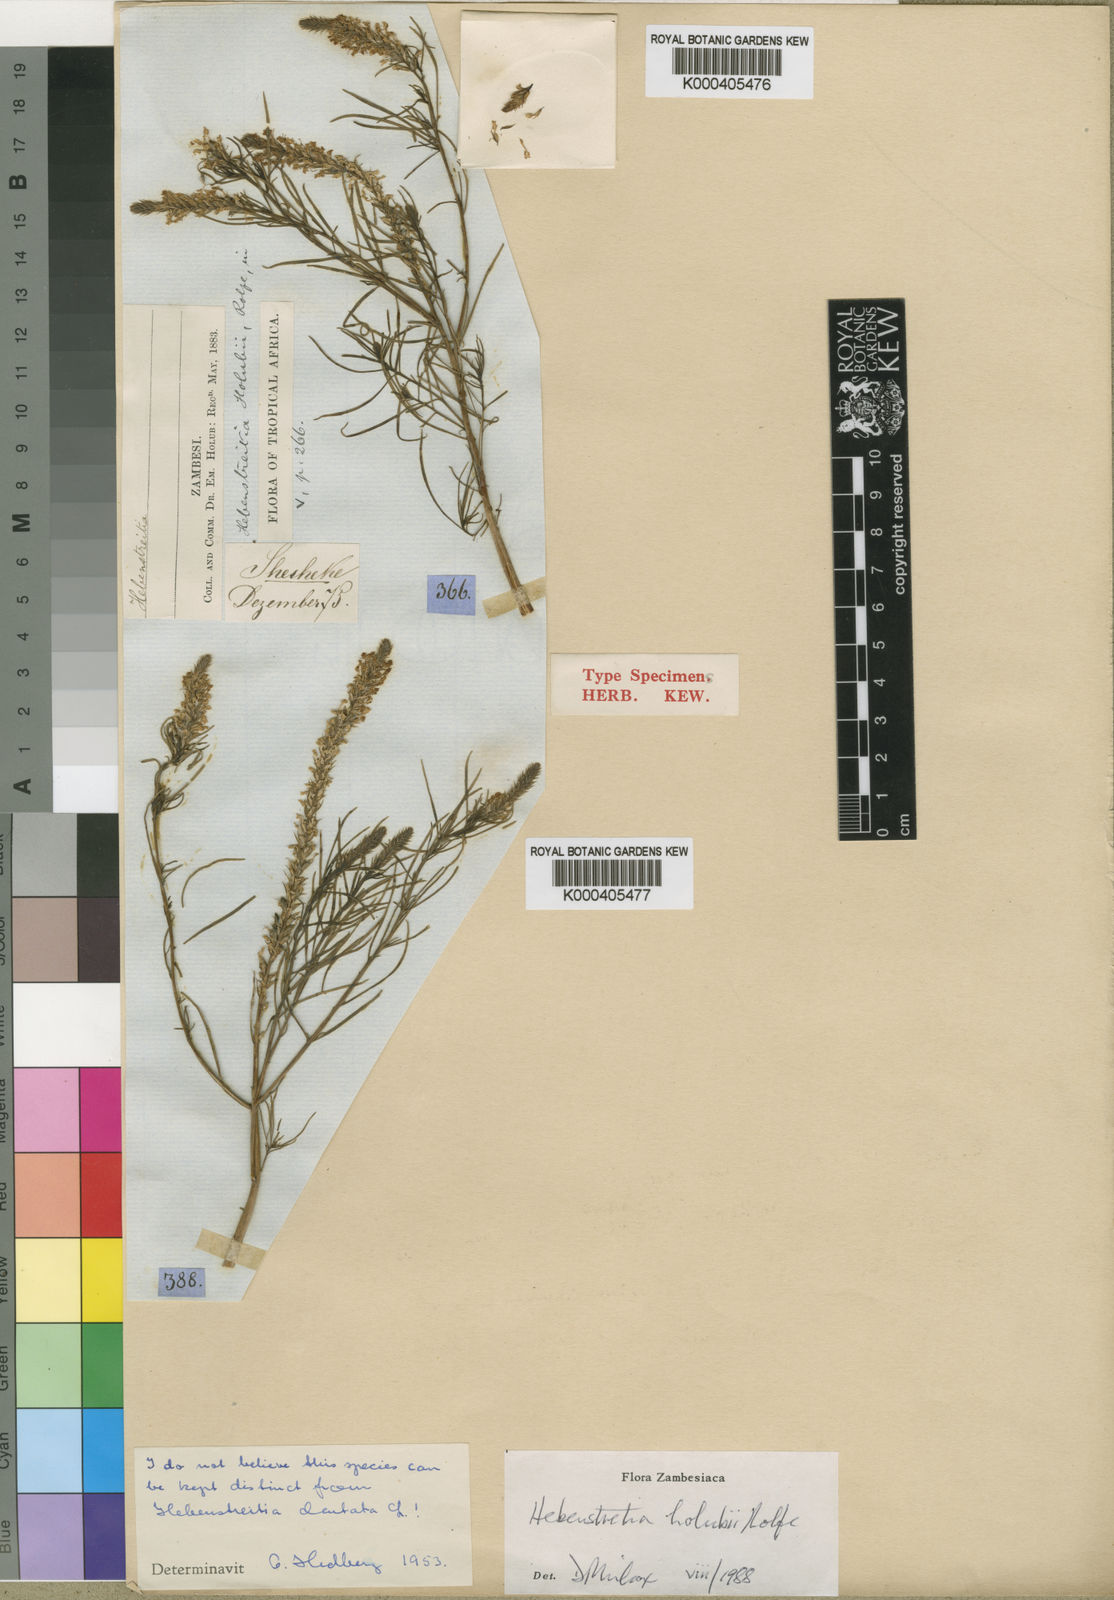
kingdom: Plantae
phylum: Tracheophyta
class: Magnoliopsida
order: Lamiales
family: Scrophulariaceae
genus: Hebenstretia
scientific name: Hebenstretia angolensis
